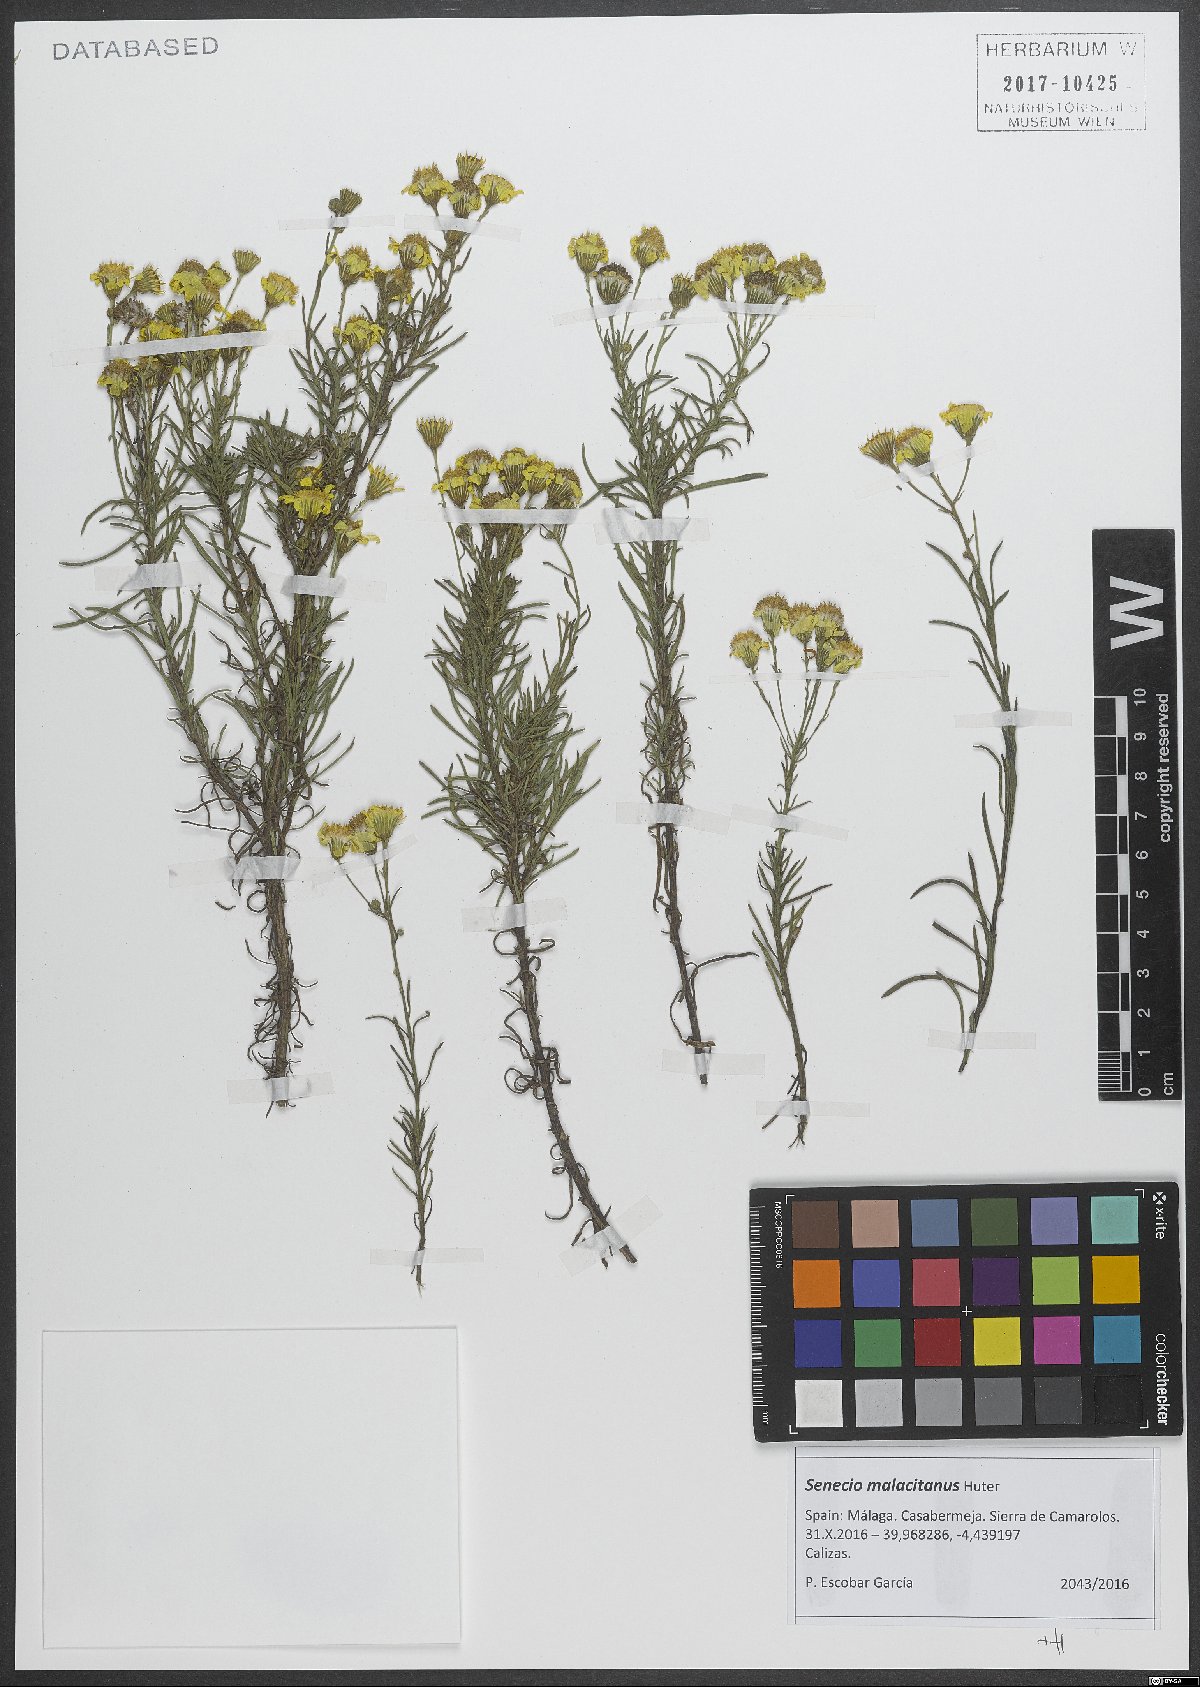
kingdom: Plantae
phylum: Tracheophyta
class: Magnoliopsida
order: Asterales
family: Asteraceae
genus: Senecio
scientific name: Senecio malacitanus
